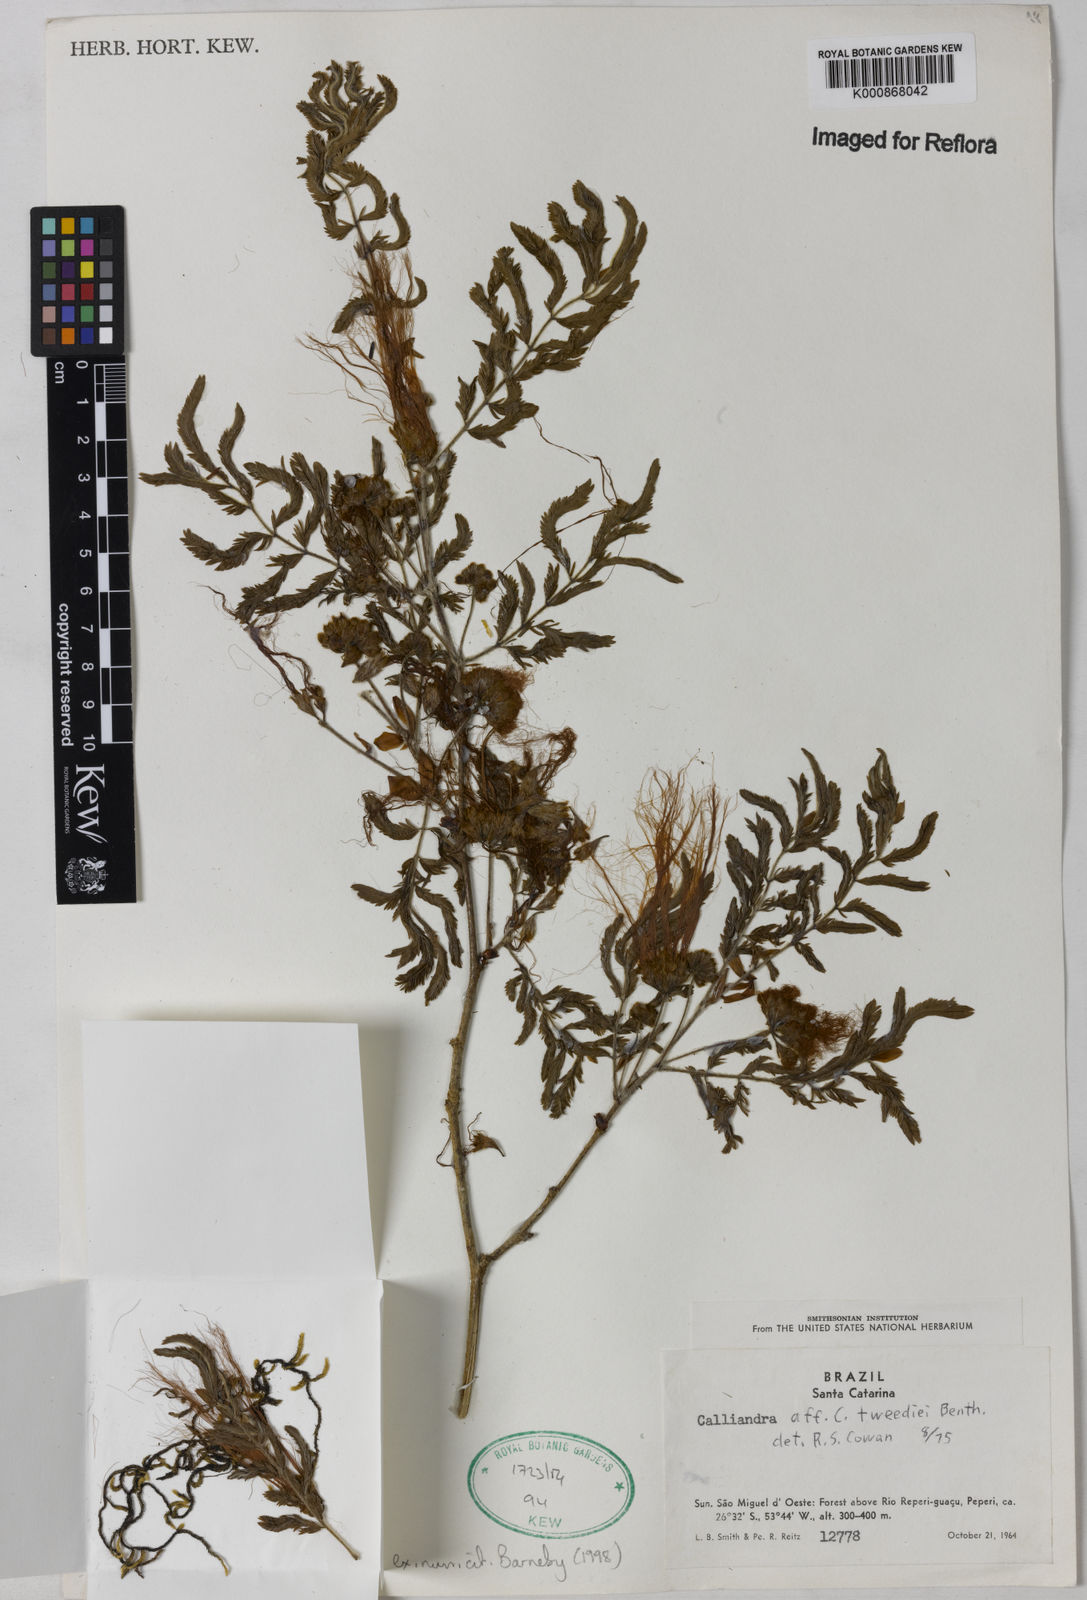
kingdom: Plantae
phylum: Tracheophyta
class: Magnoliopsida
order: Fabales
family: Fabaceae
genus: Calliandra
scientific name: Calliandra tweediei
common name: Mexican flamebush
